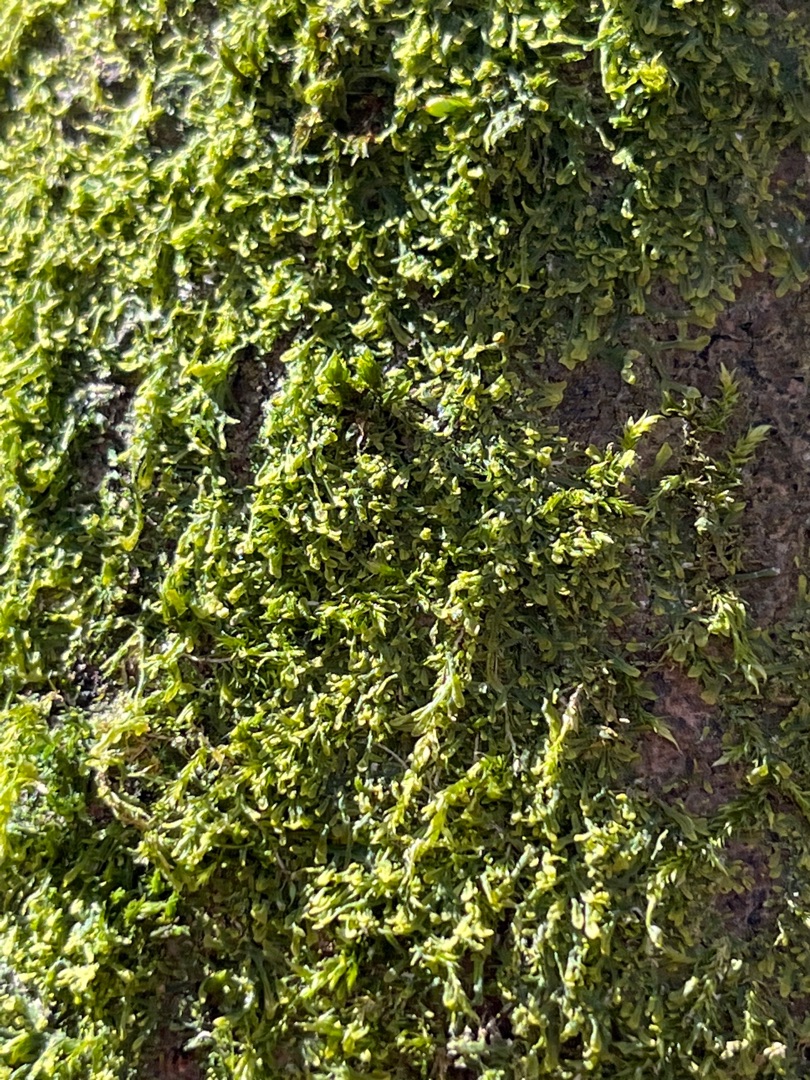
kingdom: Plantae
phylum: Marchantiophyta
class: Jungermanniopsida
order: Metzgeriales
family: Metzgeriaceae
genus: Metzgeria
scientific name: Metzgeria furcata
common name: Almindelig gaffelløv
